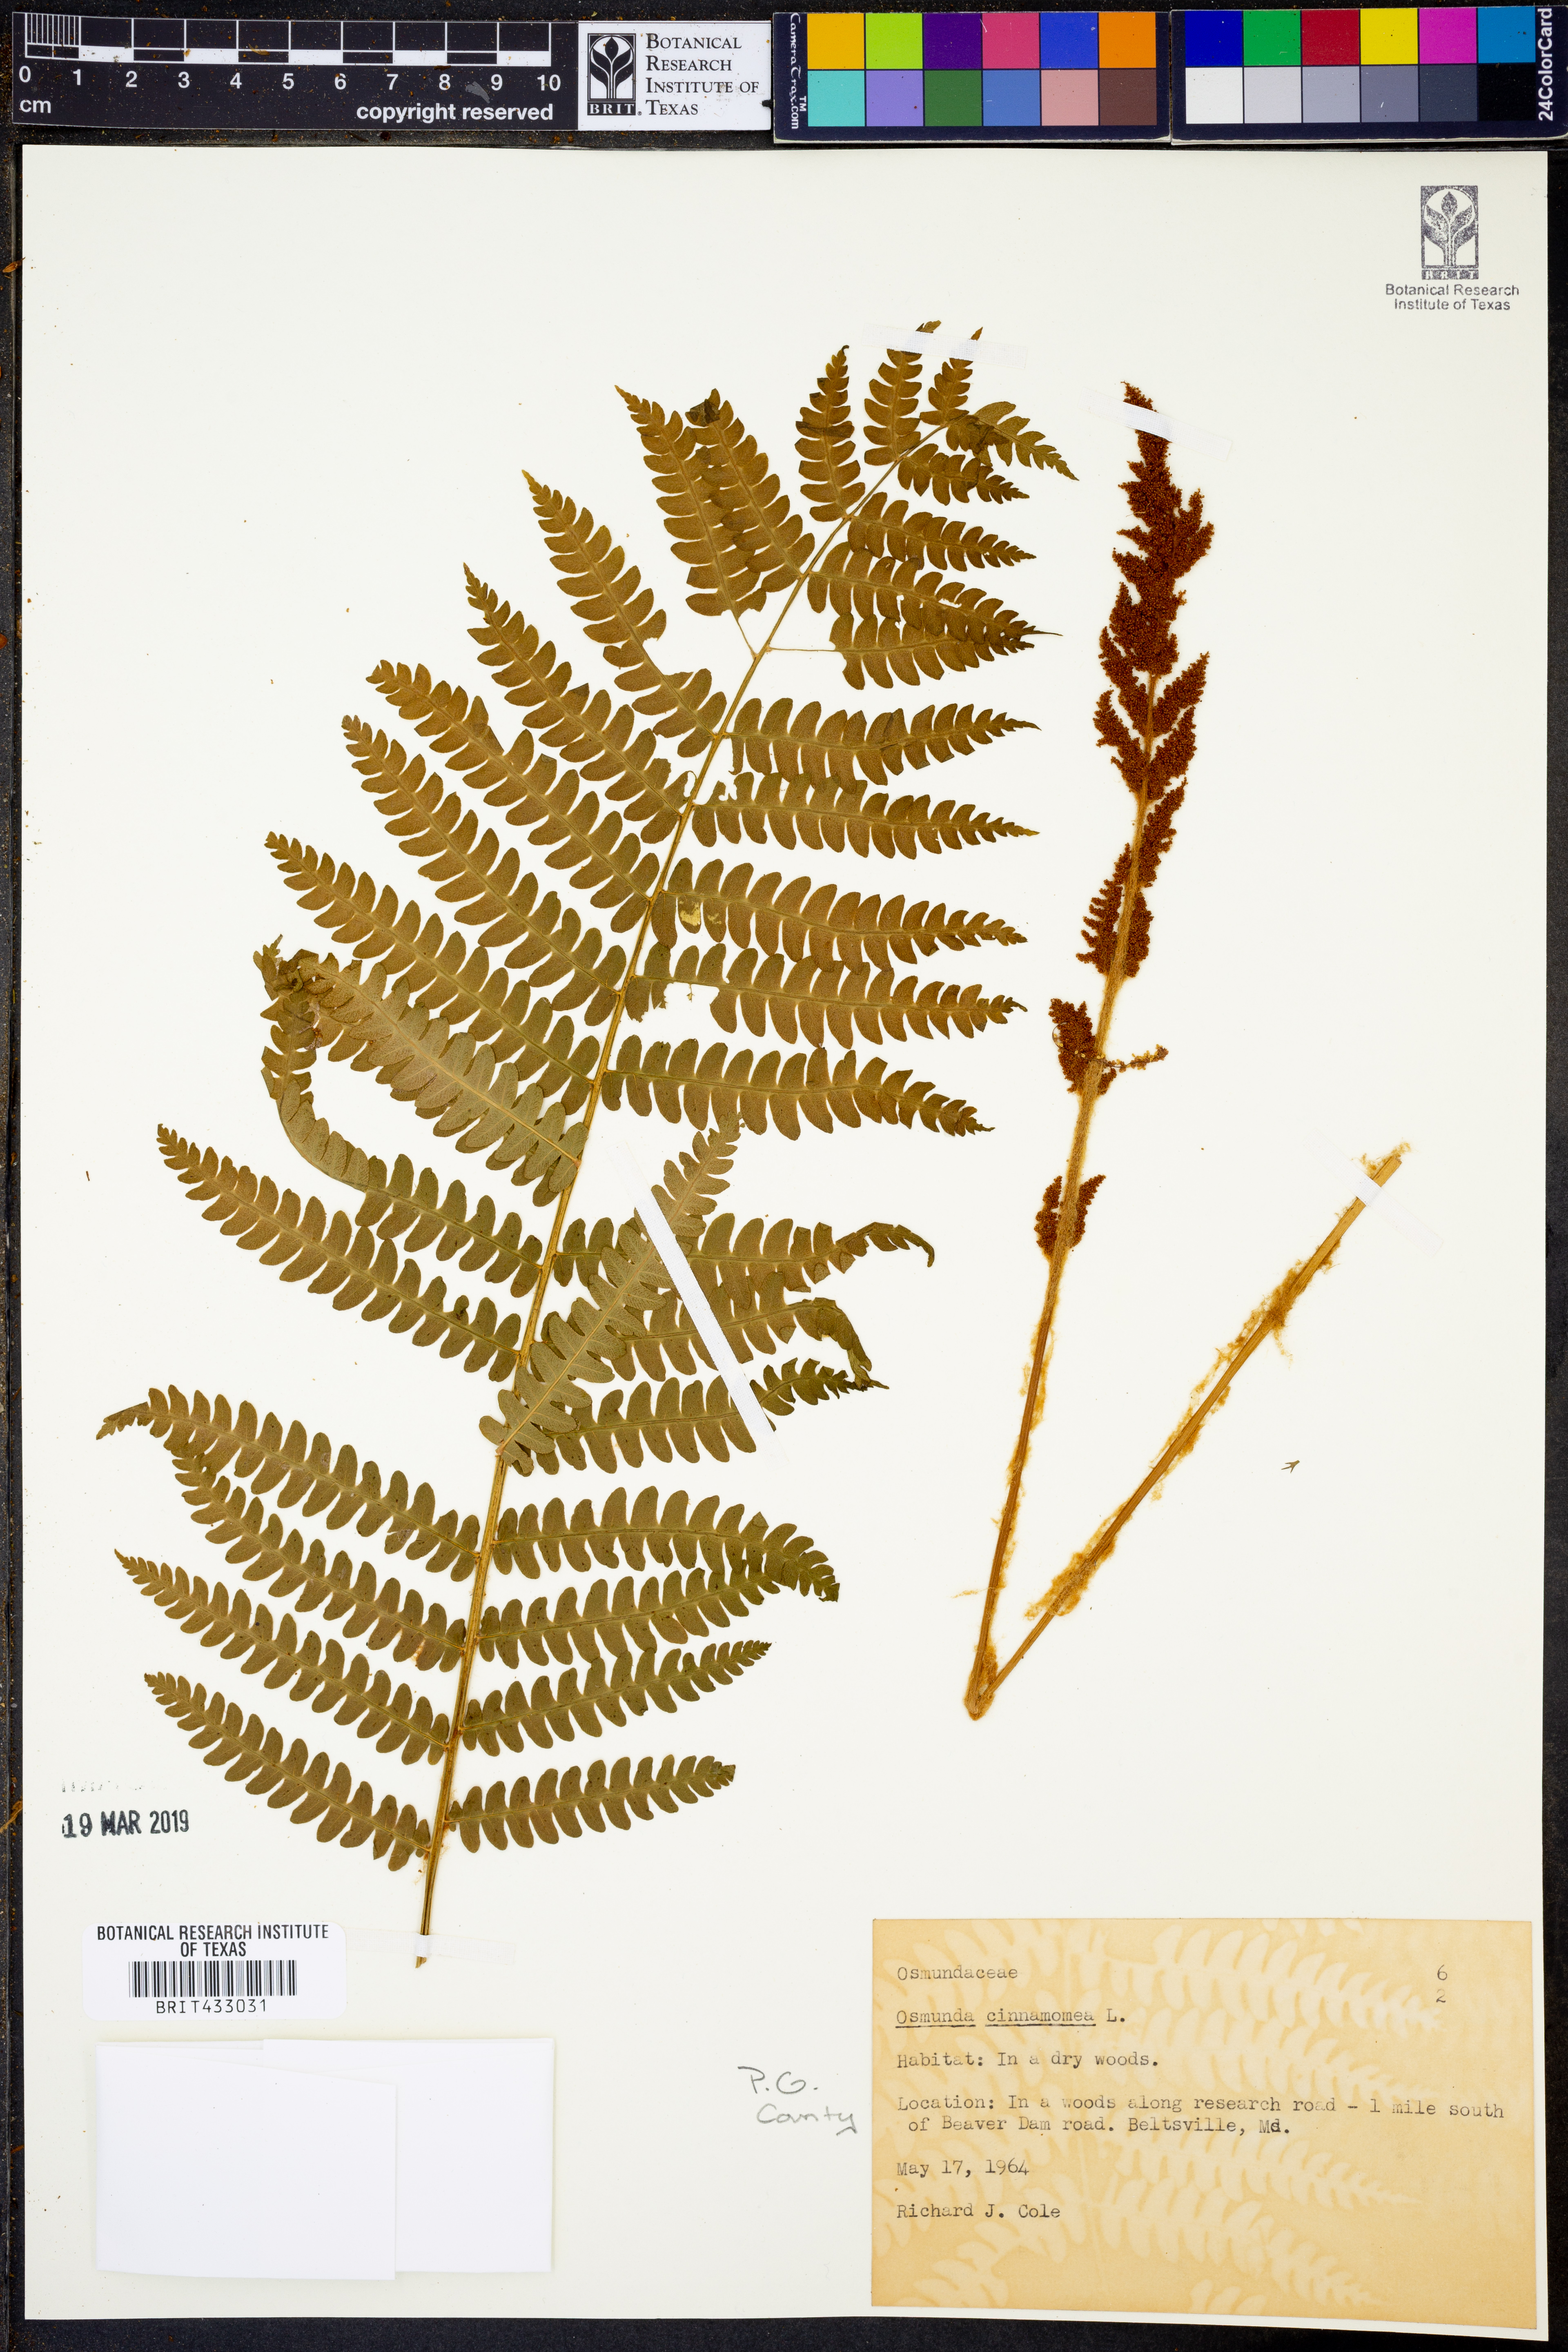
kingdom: Plantae
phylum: Tracheophyta
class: Polypodiopsida
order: Osmundales
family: Osmundaceae
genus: Osmundastrum
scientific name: Osmundastrum cinnamomeum
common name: Cinnamon fern
